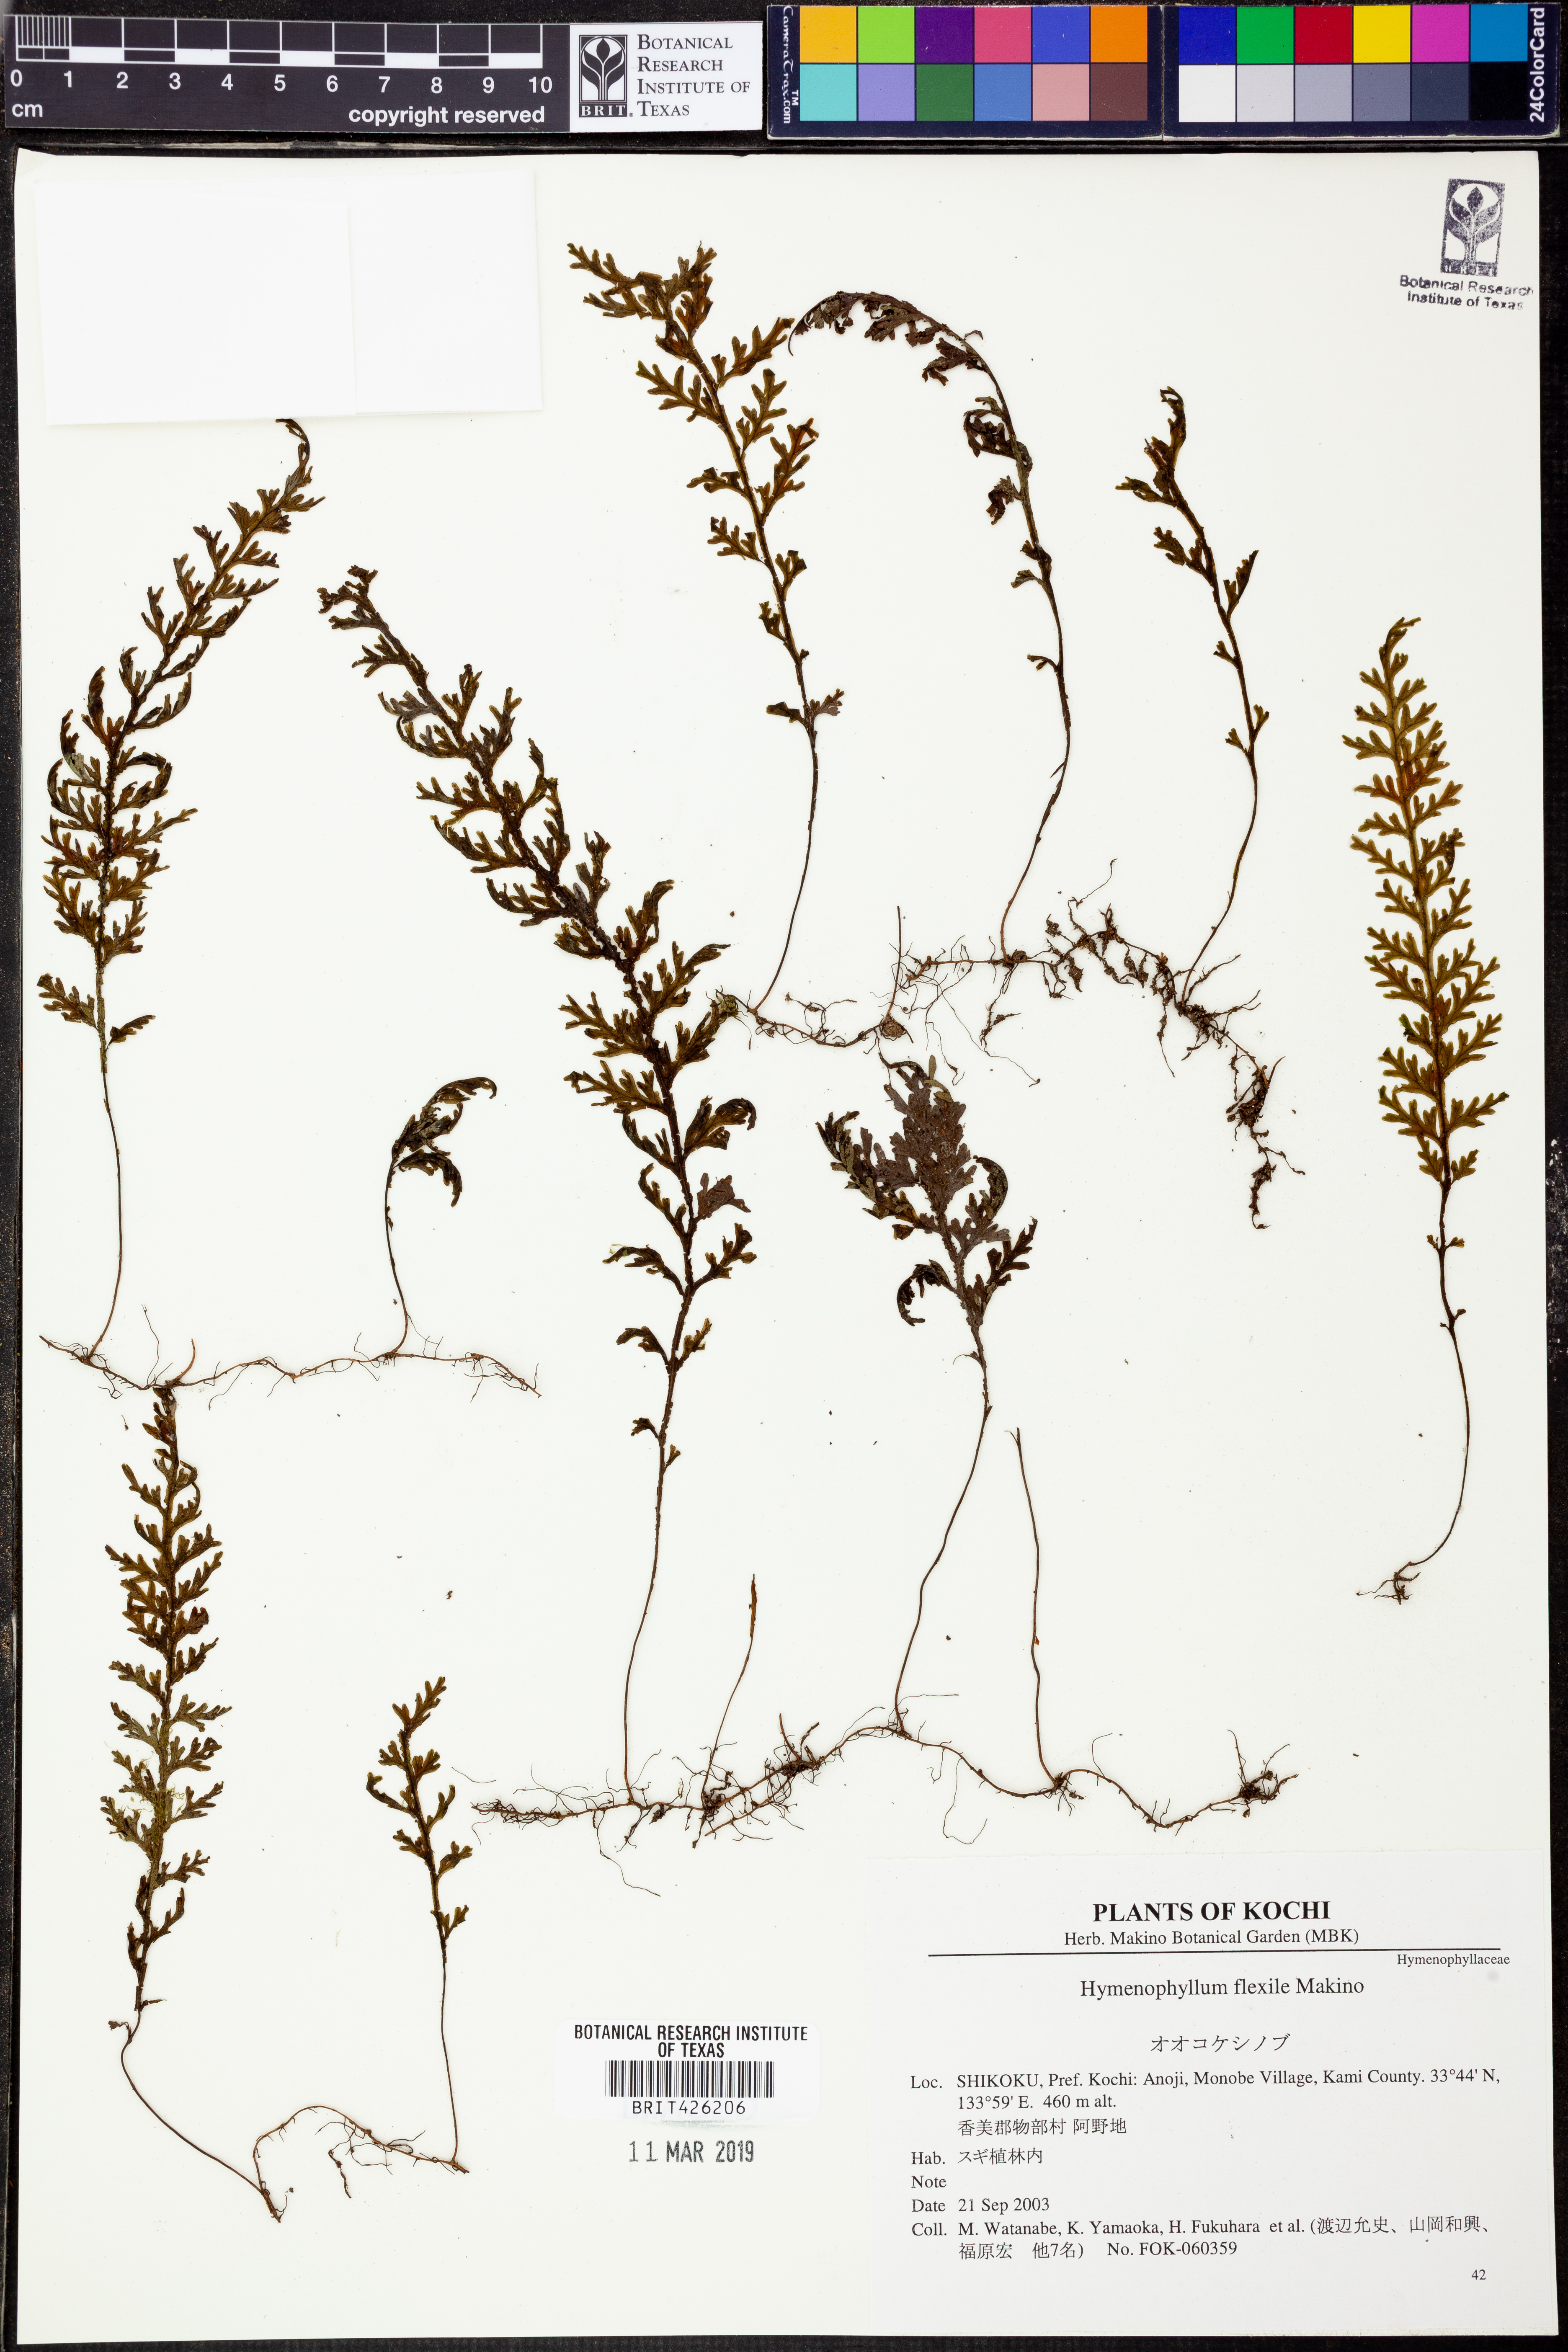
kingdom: Plantae
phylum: Tracheophyta
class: Polypodiopsida
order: Hymenophyllales
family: Hymenophyllaceae
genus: Hymenophyllum
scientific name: Hymenophyllum badium
